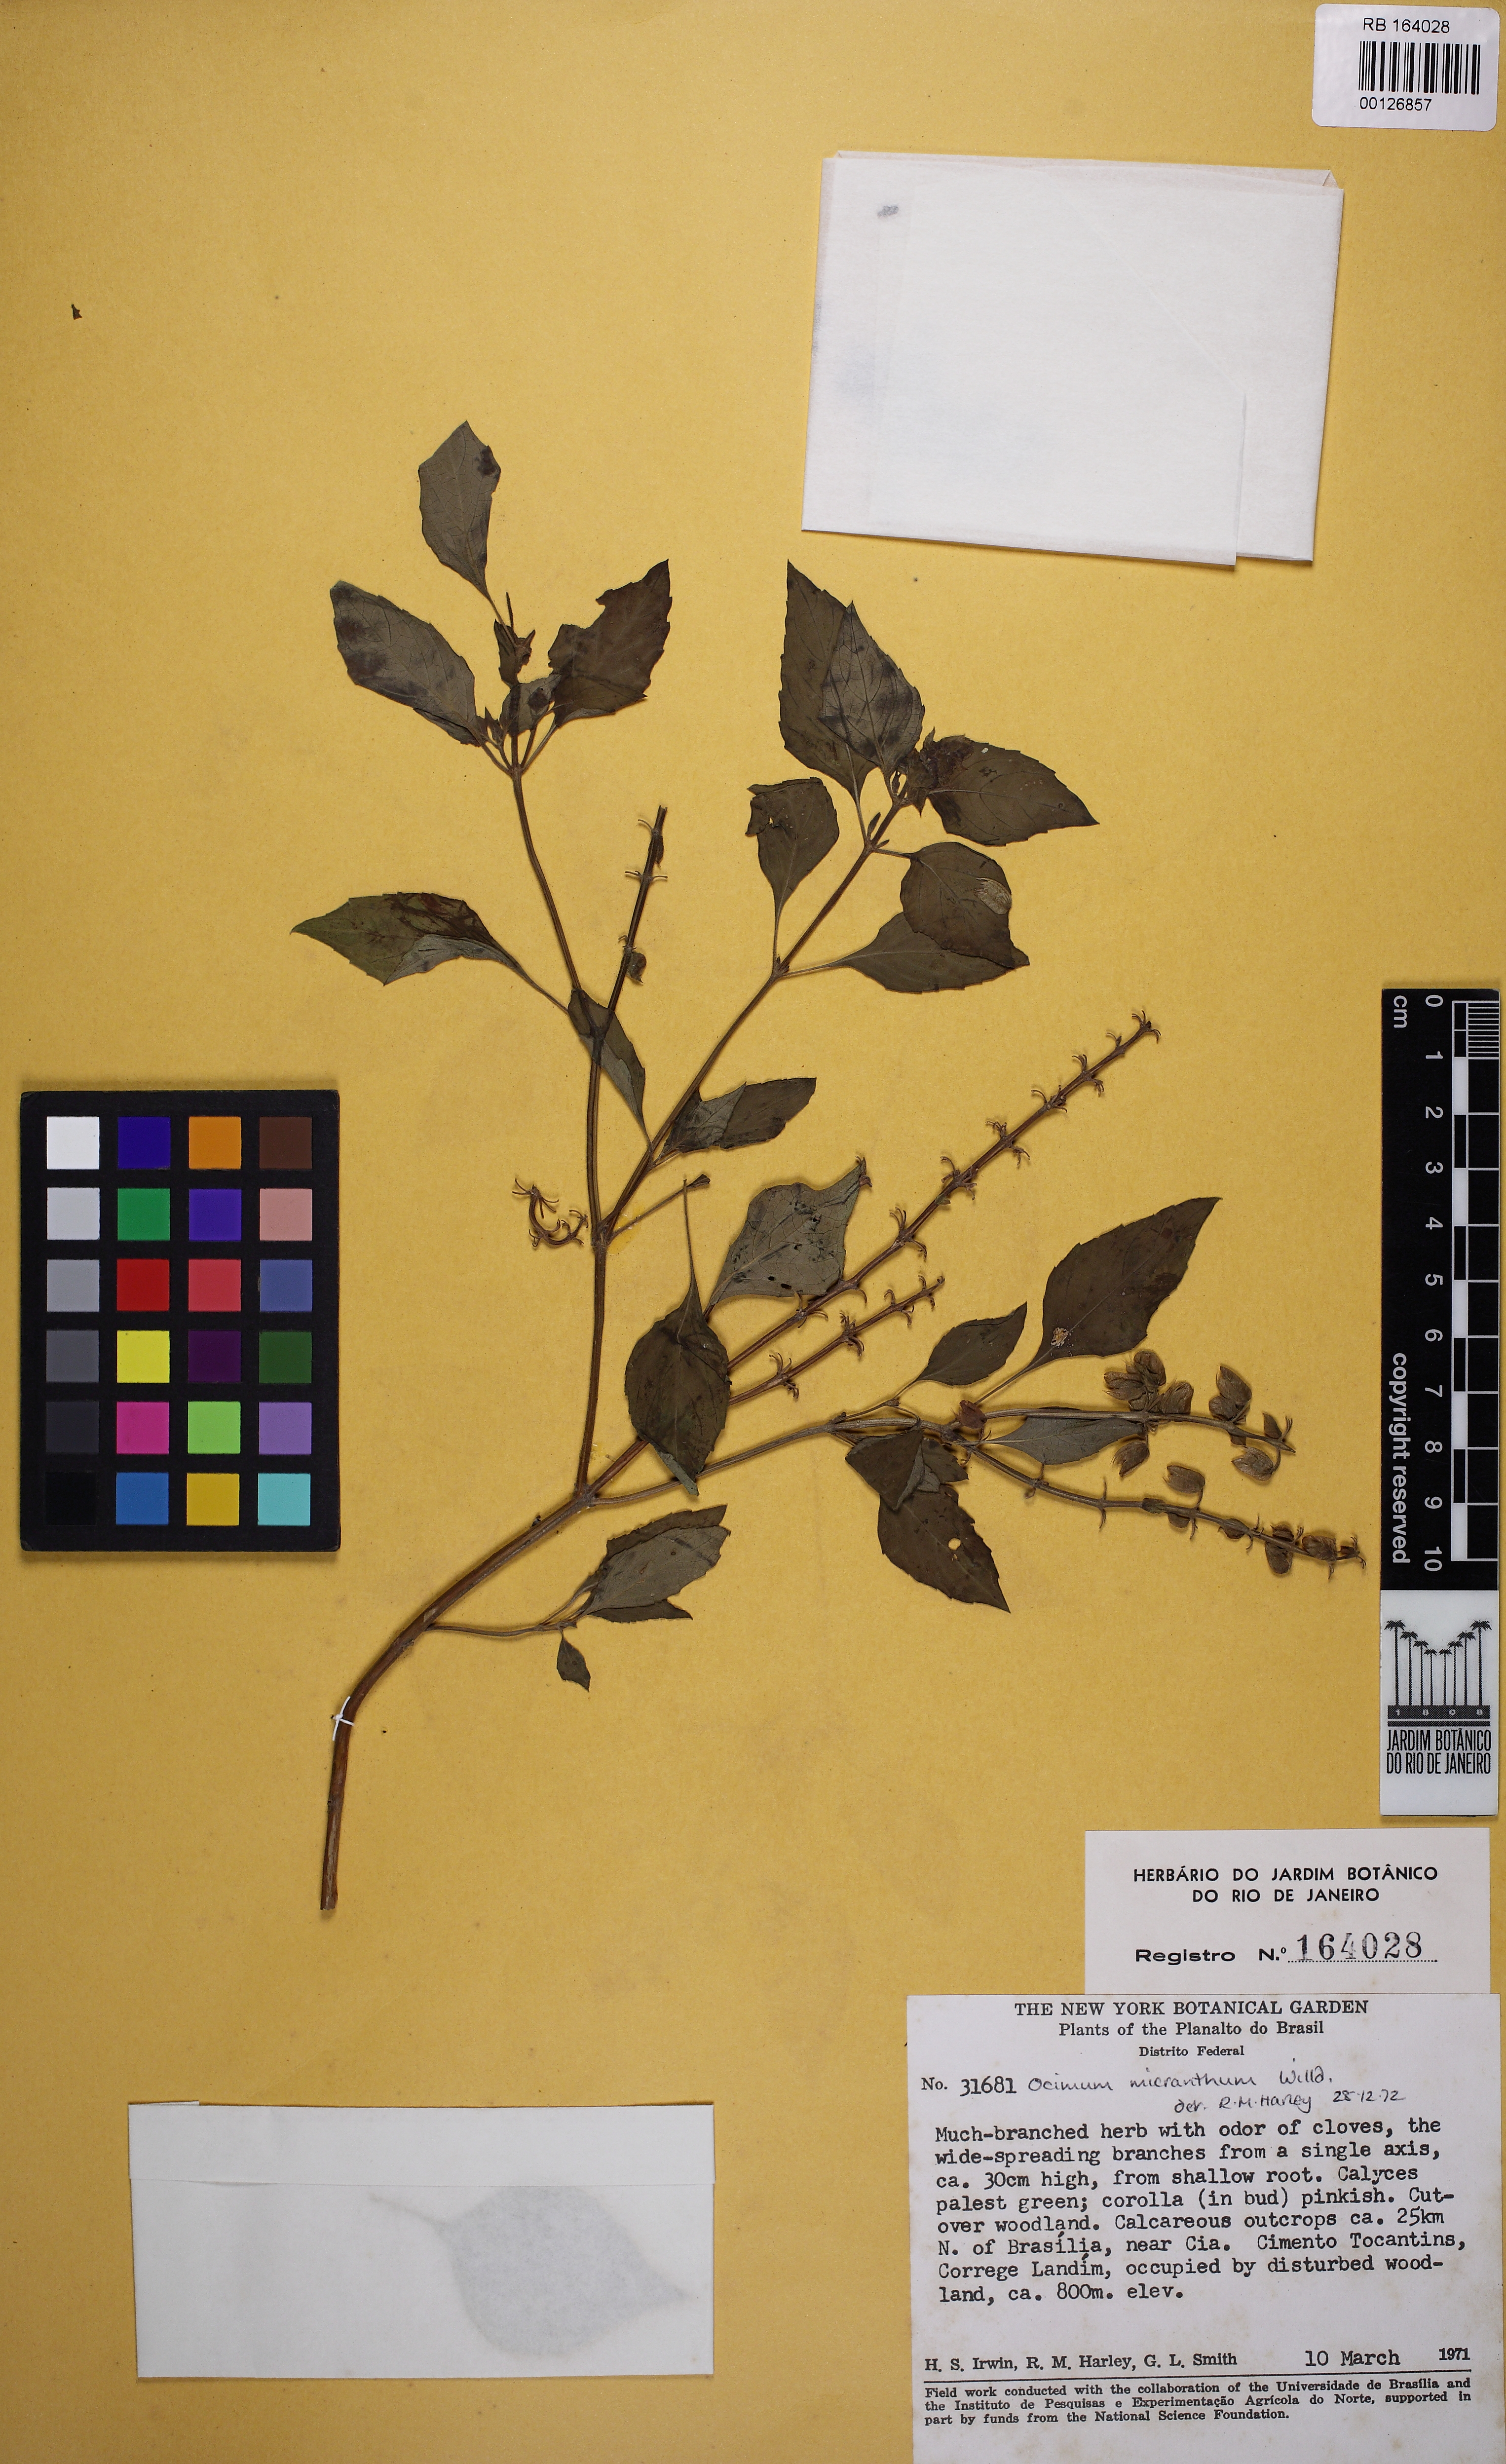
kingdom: Plantae
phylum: Tracheophyta
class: Magnoliopsida
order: Lamiales
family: Lamiaceae
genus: Ocimum
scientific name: Ocimum campechianum
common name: Mosquito basil
